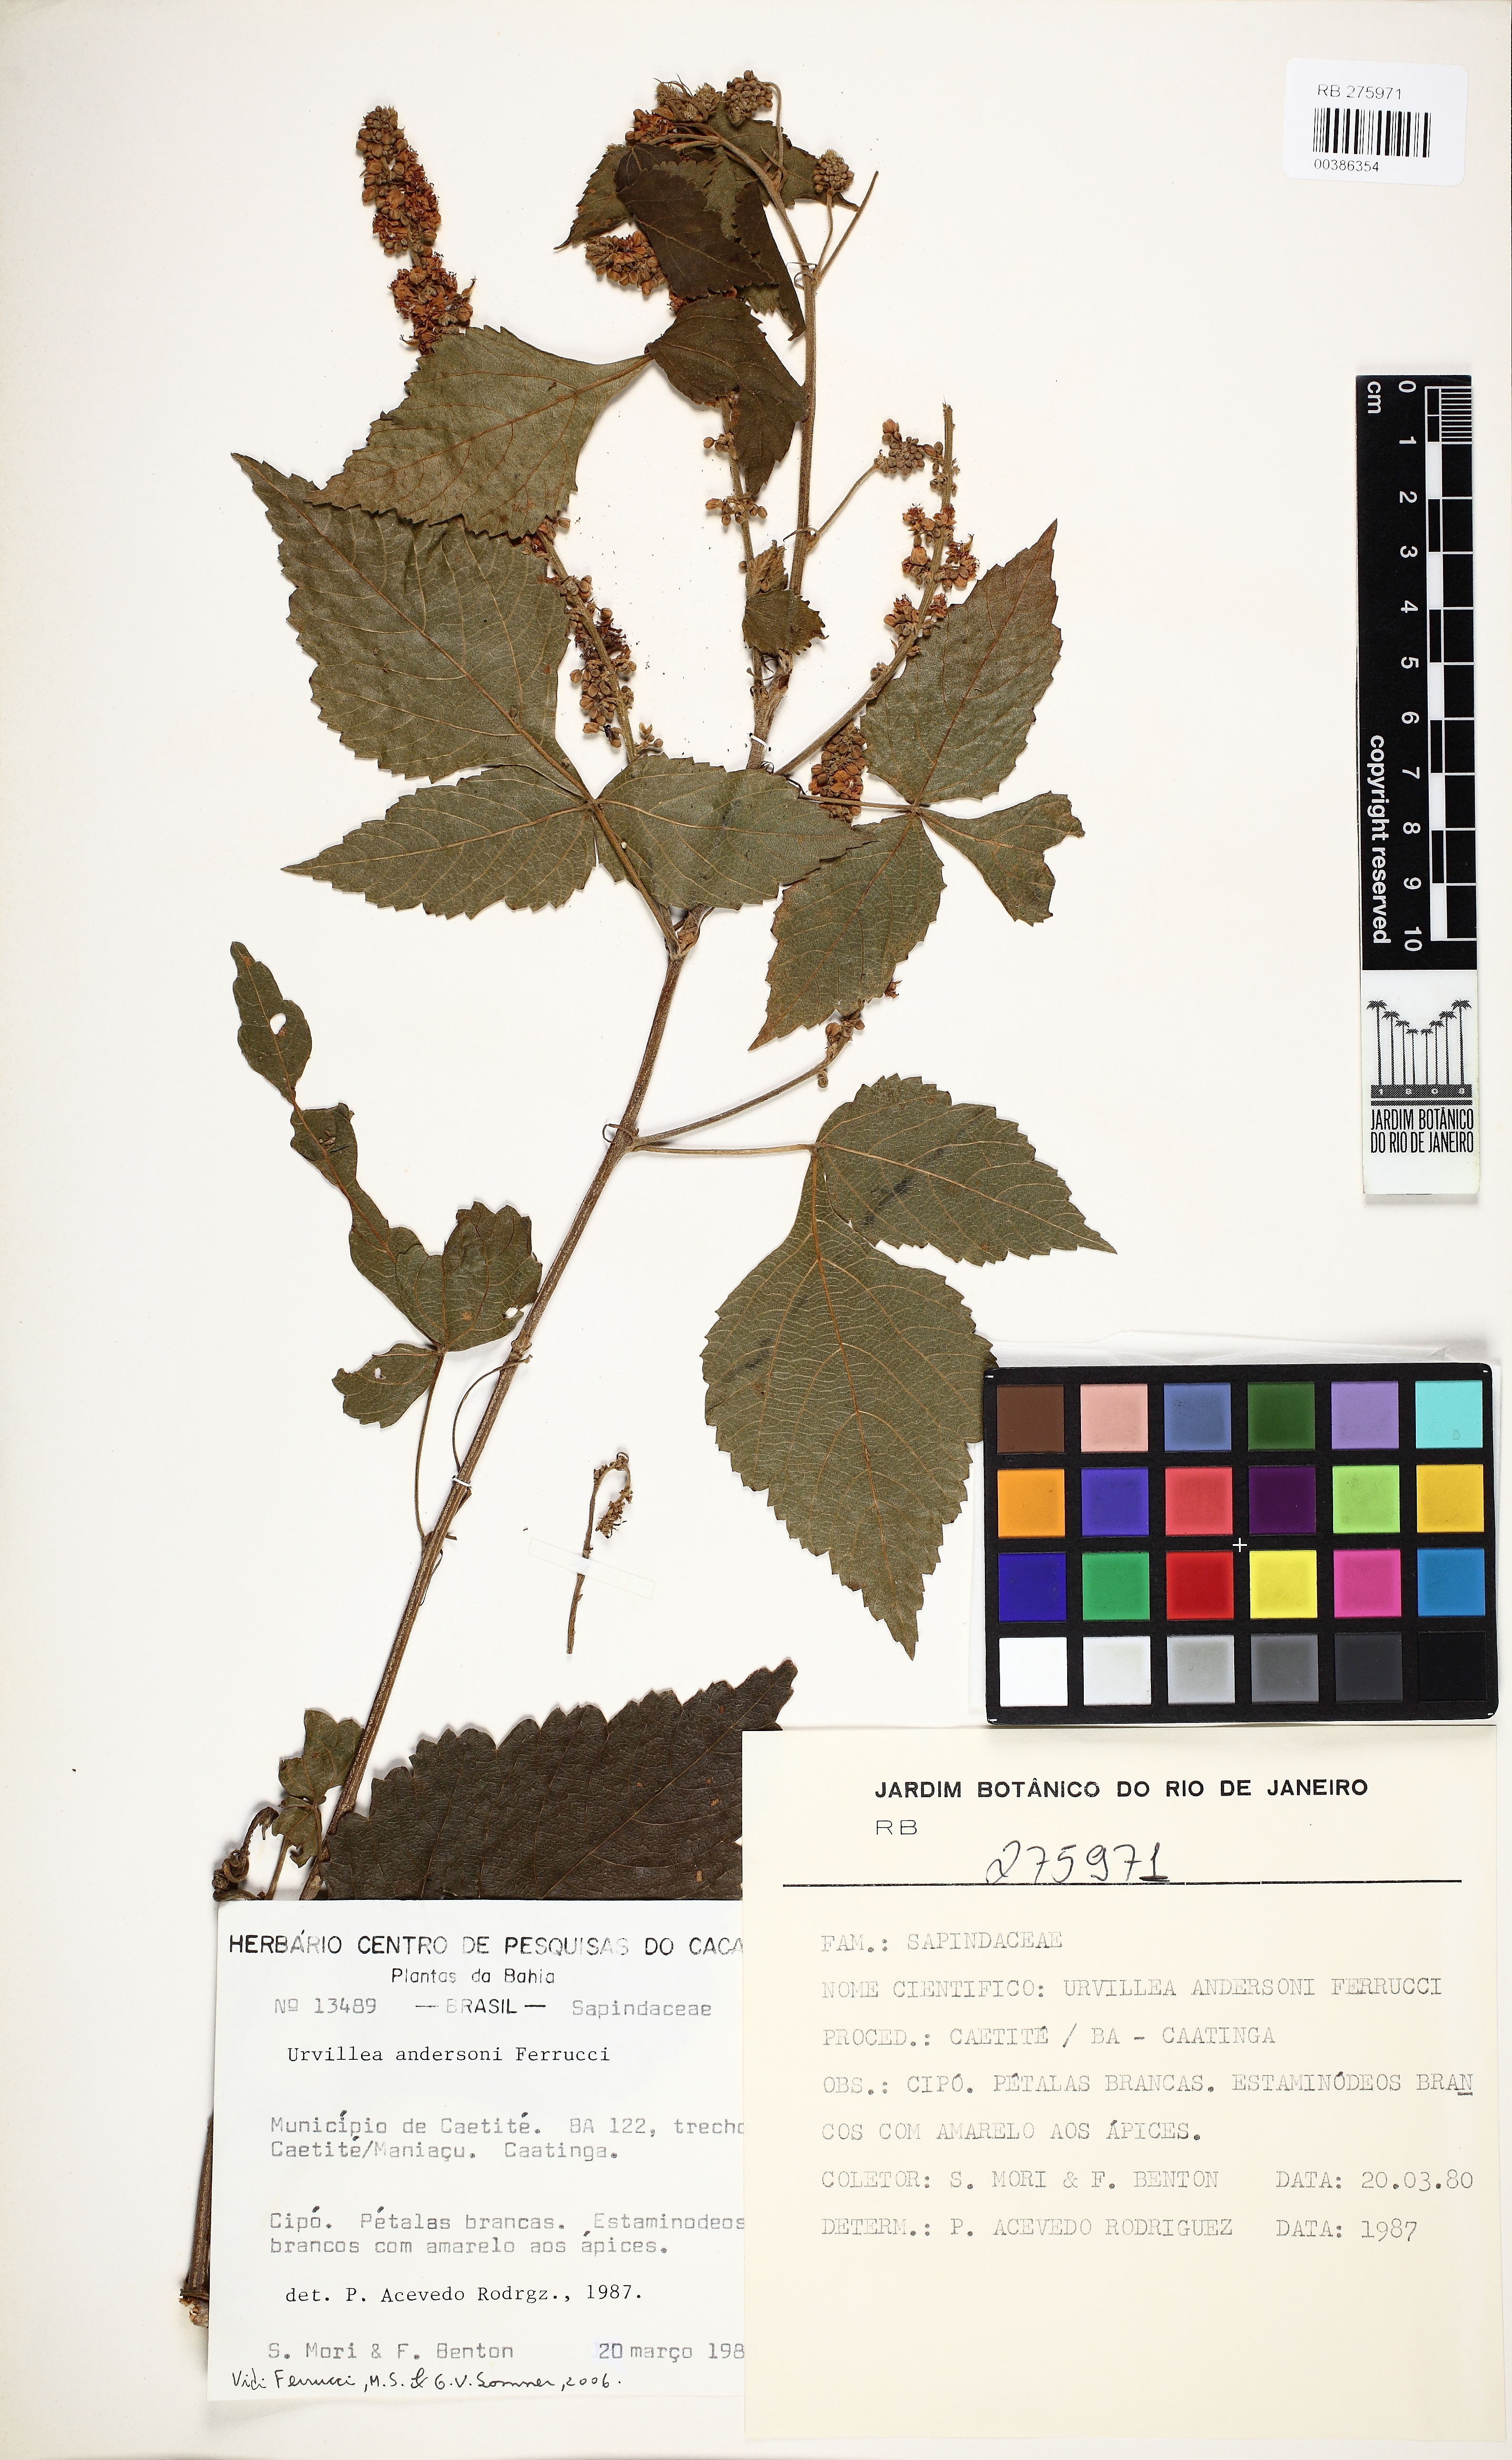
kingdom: Plantae
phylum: Tracheophyta
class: Magnoliopsida
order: Sapindales
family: Sapindaceae
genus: Urvillea
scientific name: Urvillea andersonii
